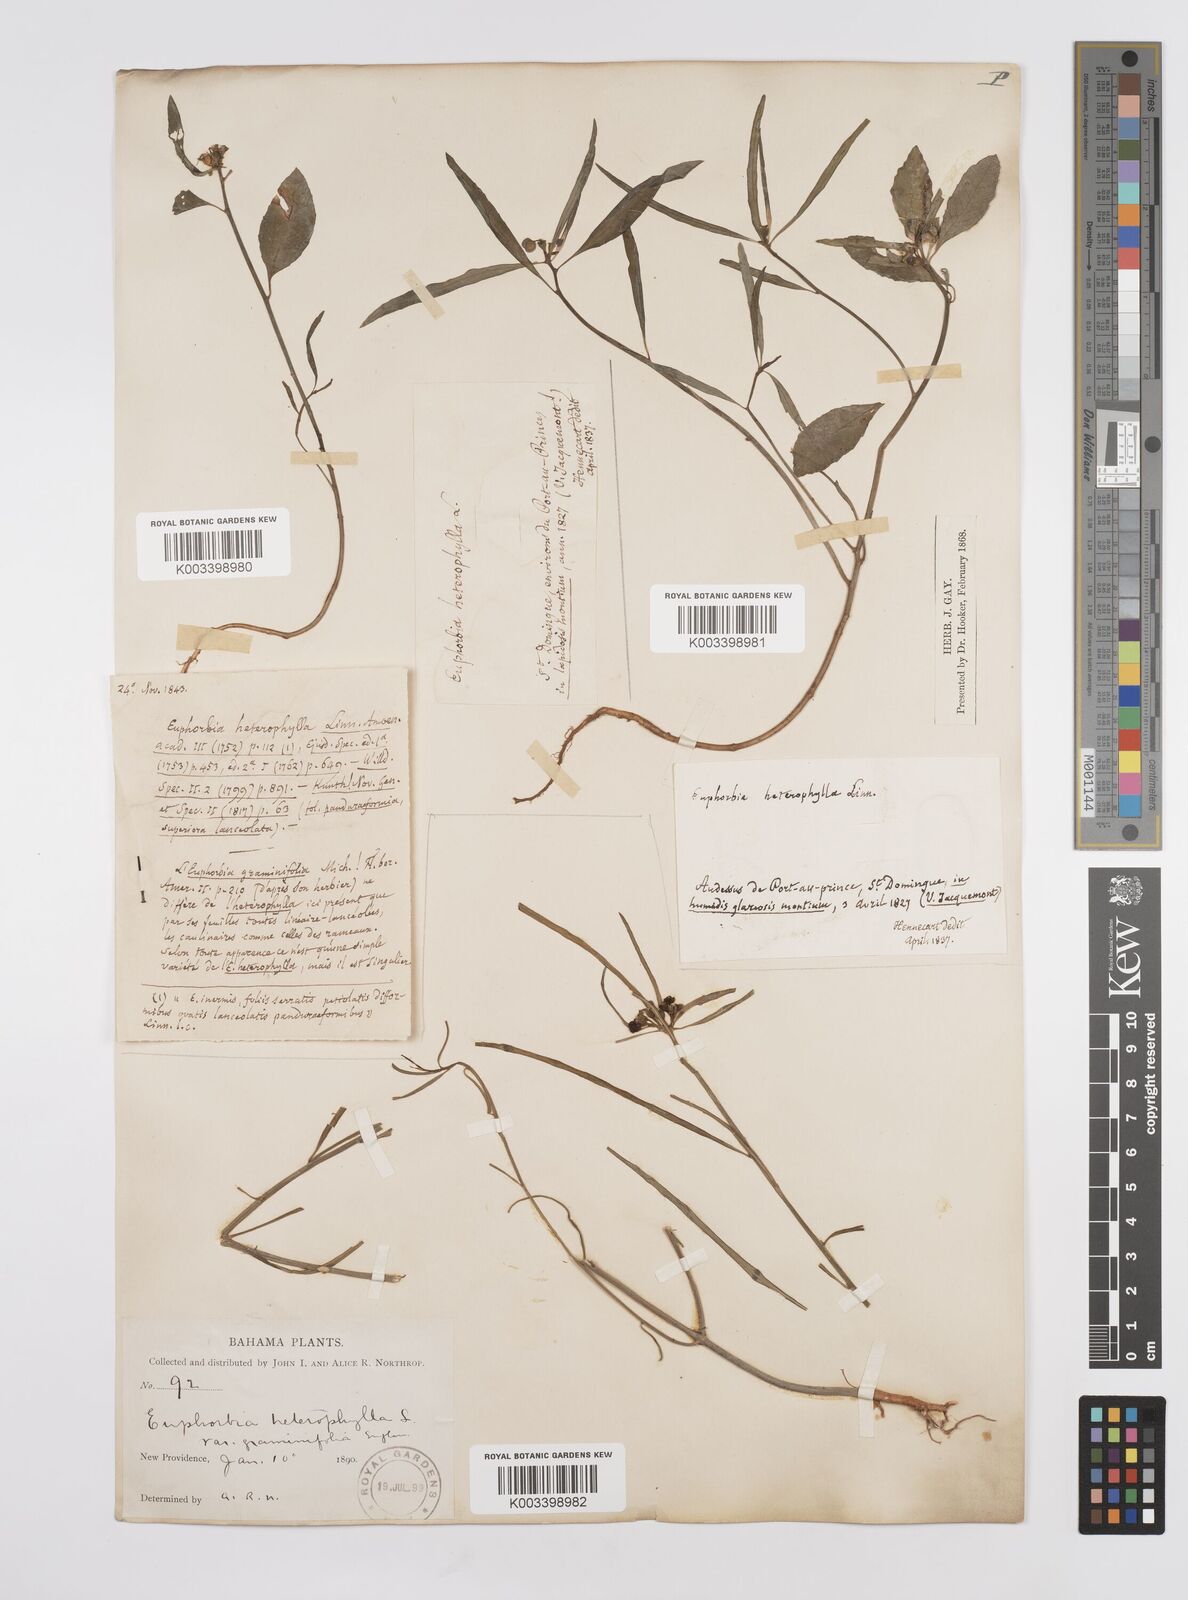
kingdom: Plantae
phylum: Tracheophyta
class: Magnoliopsida
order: Malpighiales
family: Euphorbiaceae
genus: Euphorbia
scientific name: Euphorbia heterophylla
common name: Mexican fireplant
